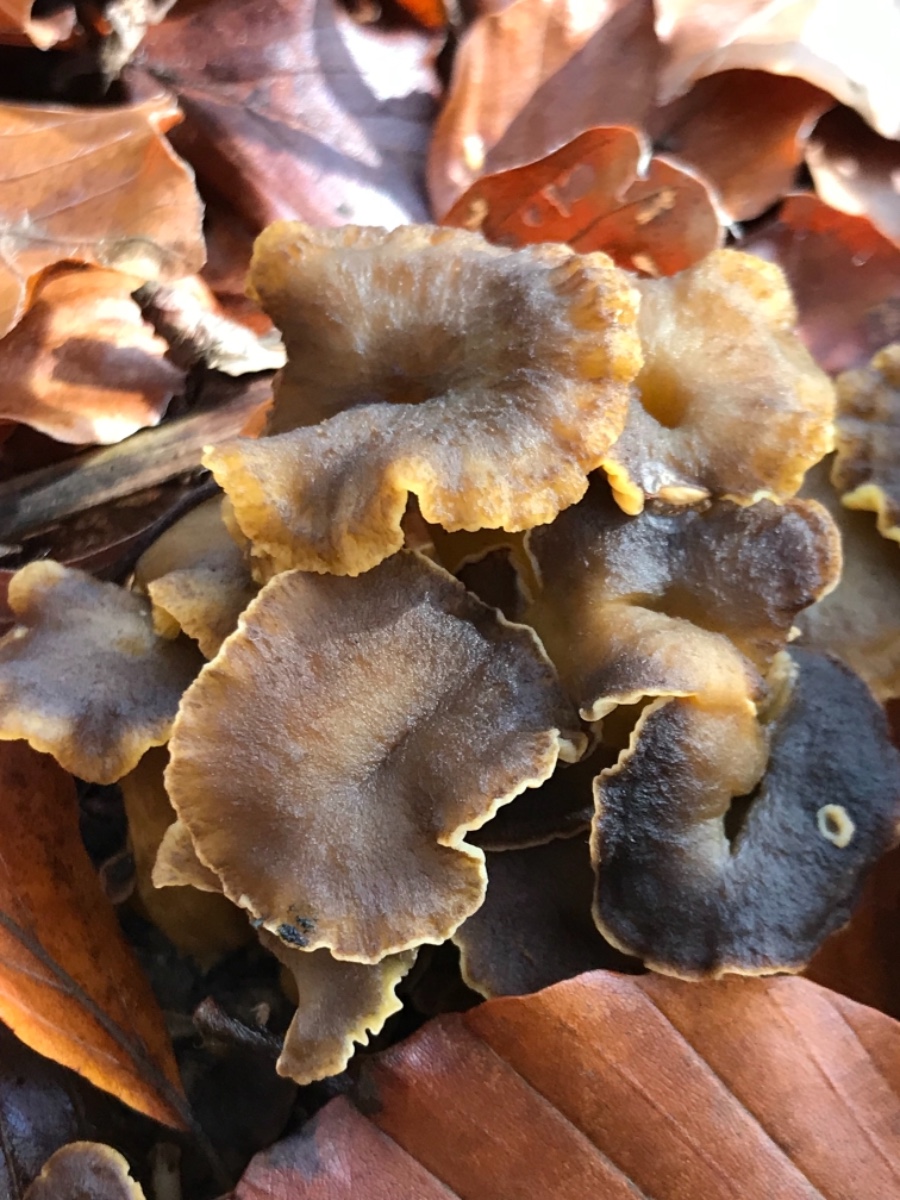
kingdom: Fungi
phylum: Basidiomycota
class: Agaricomycetes
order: Cantharellales
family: Hydnaceae
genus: Craterellus
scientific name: Craterellus tubaeformis
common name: tragt-kantarel
